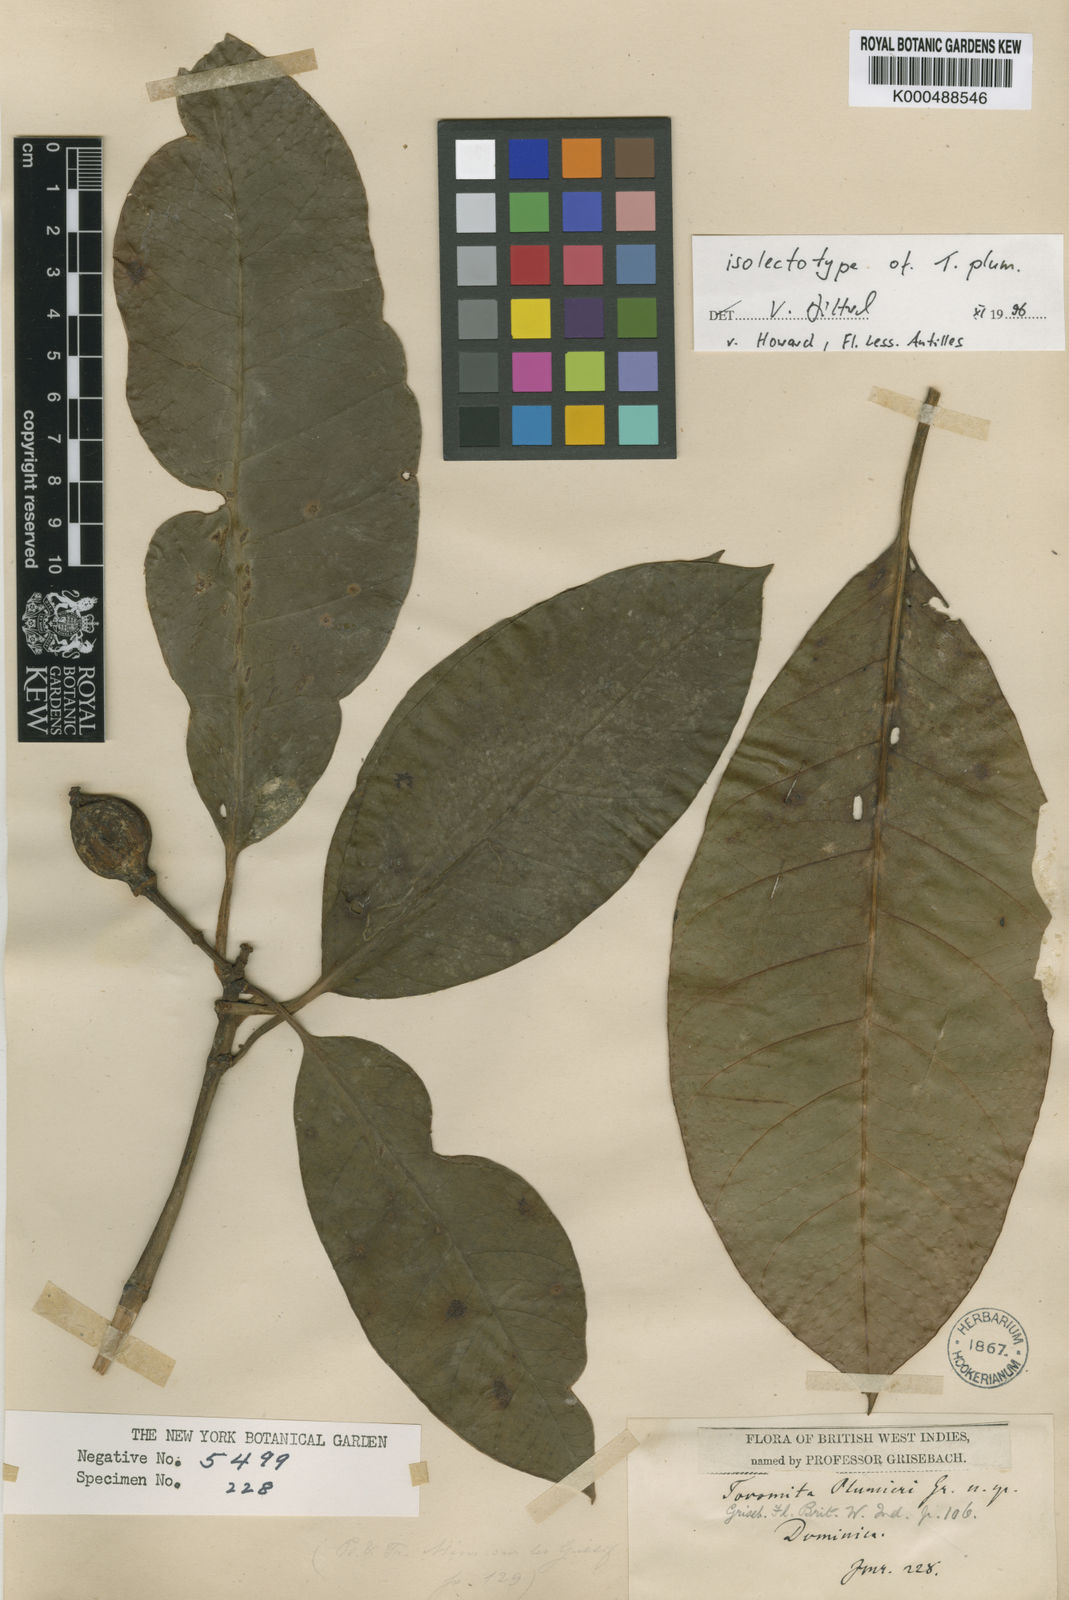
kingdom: Plantae
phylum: Tracheophyta
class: Magnoliopsida
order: Malpighiales
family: Clusiaceae
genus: Tovomita
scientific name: Tovomita plumieri
